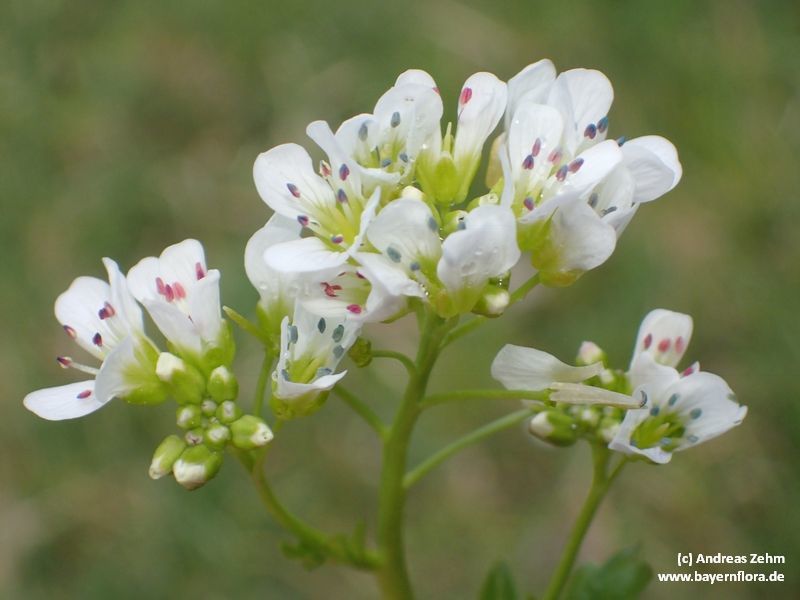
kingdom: Plantae
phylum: Tracheophyta
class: Magnoliopsida
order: Brassicales
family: Brassicaceae
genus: Cardamine
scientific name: Cardamine amara
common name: Large bitter-cress
